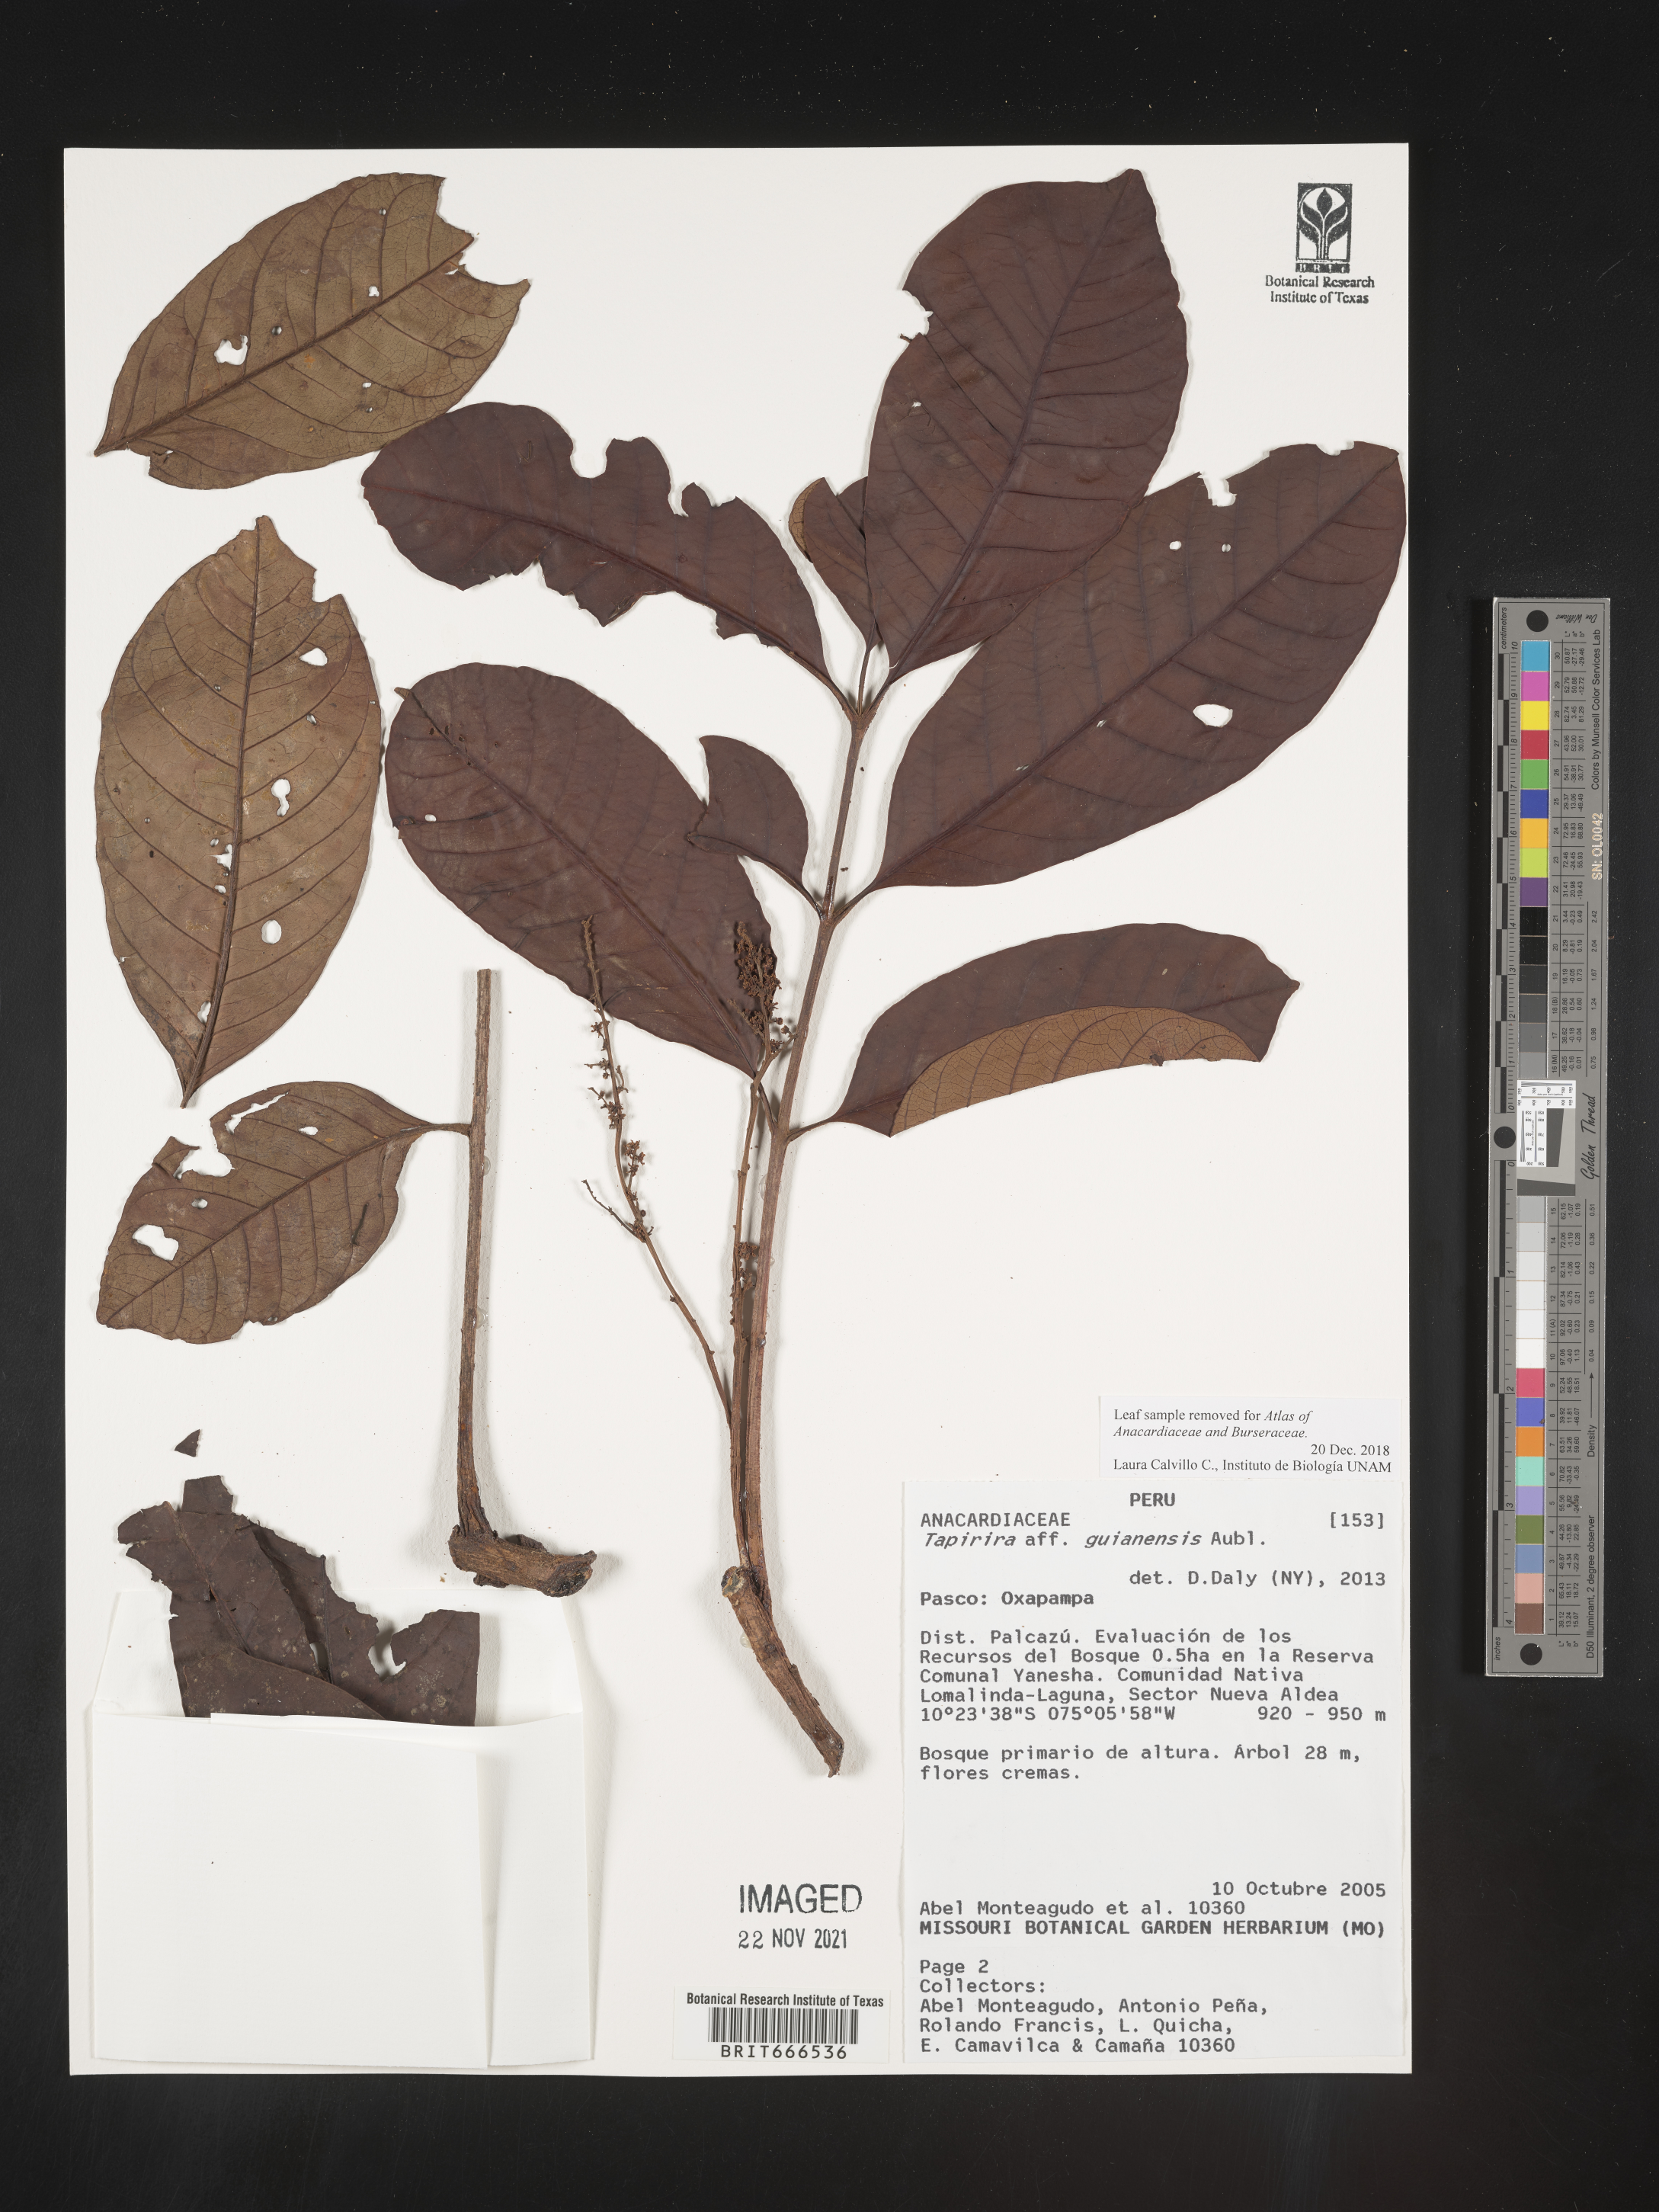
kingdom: Plantae
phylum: Tracheophyta
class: Magnoliopsida
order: Sapindales
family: Anacardiaceae
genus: Tapirira
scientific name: Tapirira
